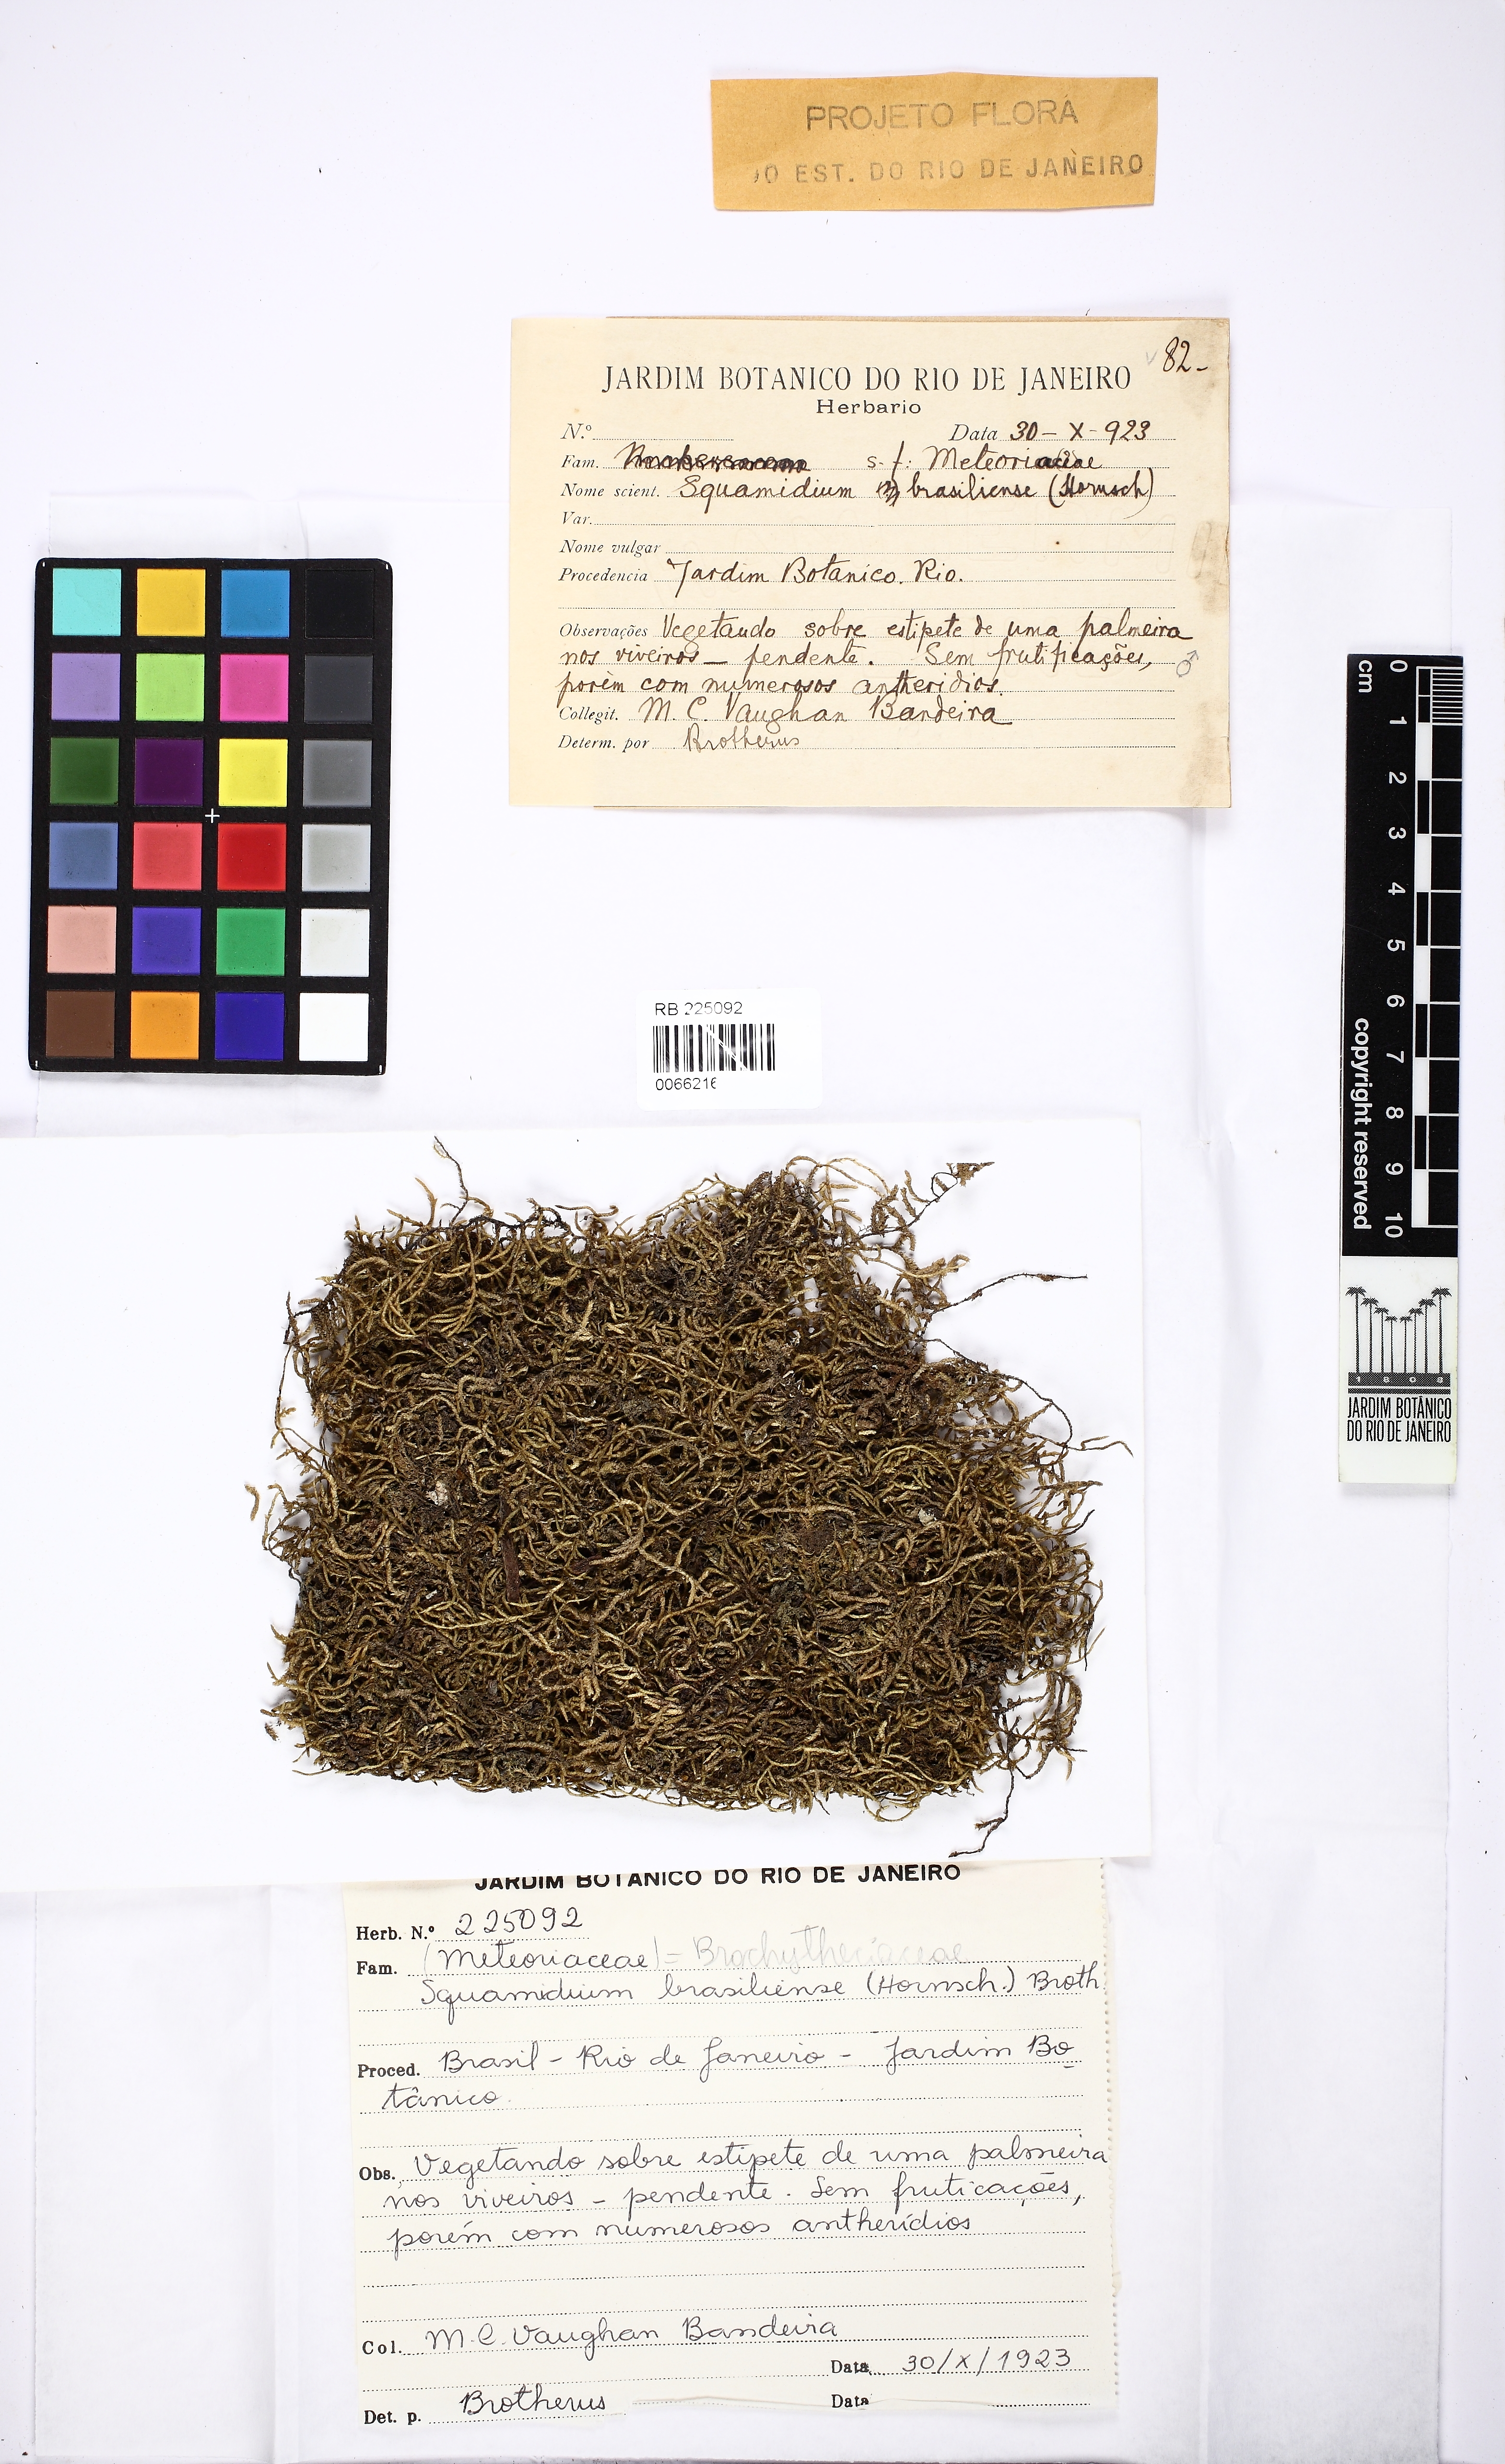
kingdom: Plantae
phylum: Bryophyta
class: Bryopsida
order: Hypnales
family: Brachytheciaceae
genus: Squamidium
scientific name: Squamidium brasiliense
